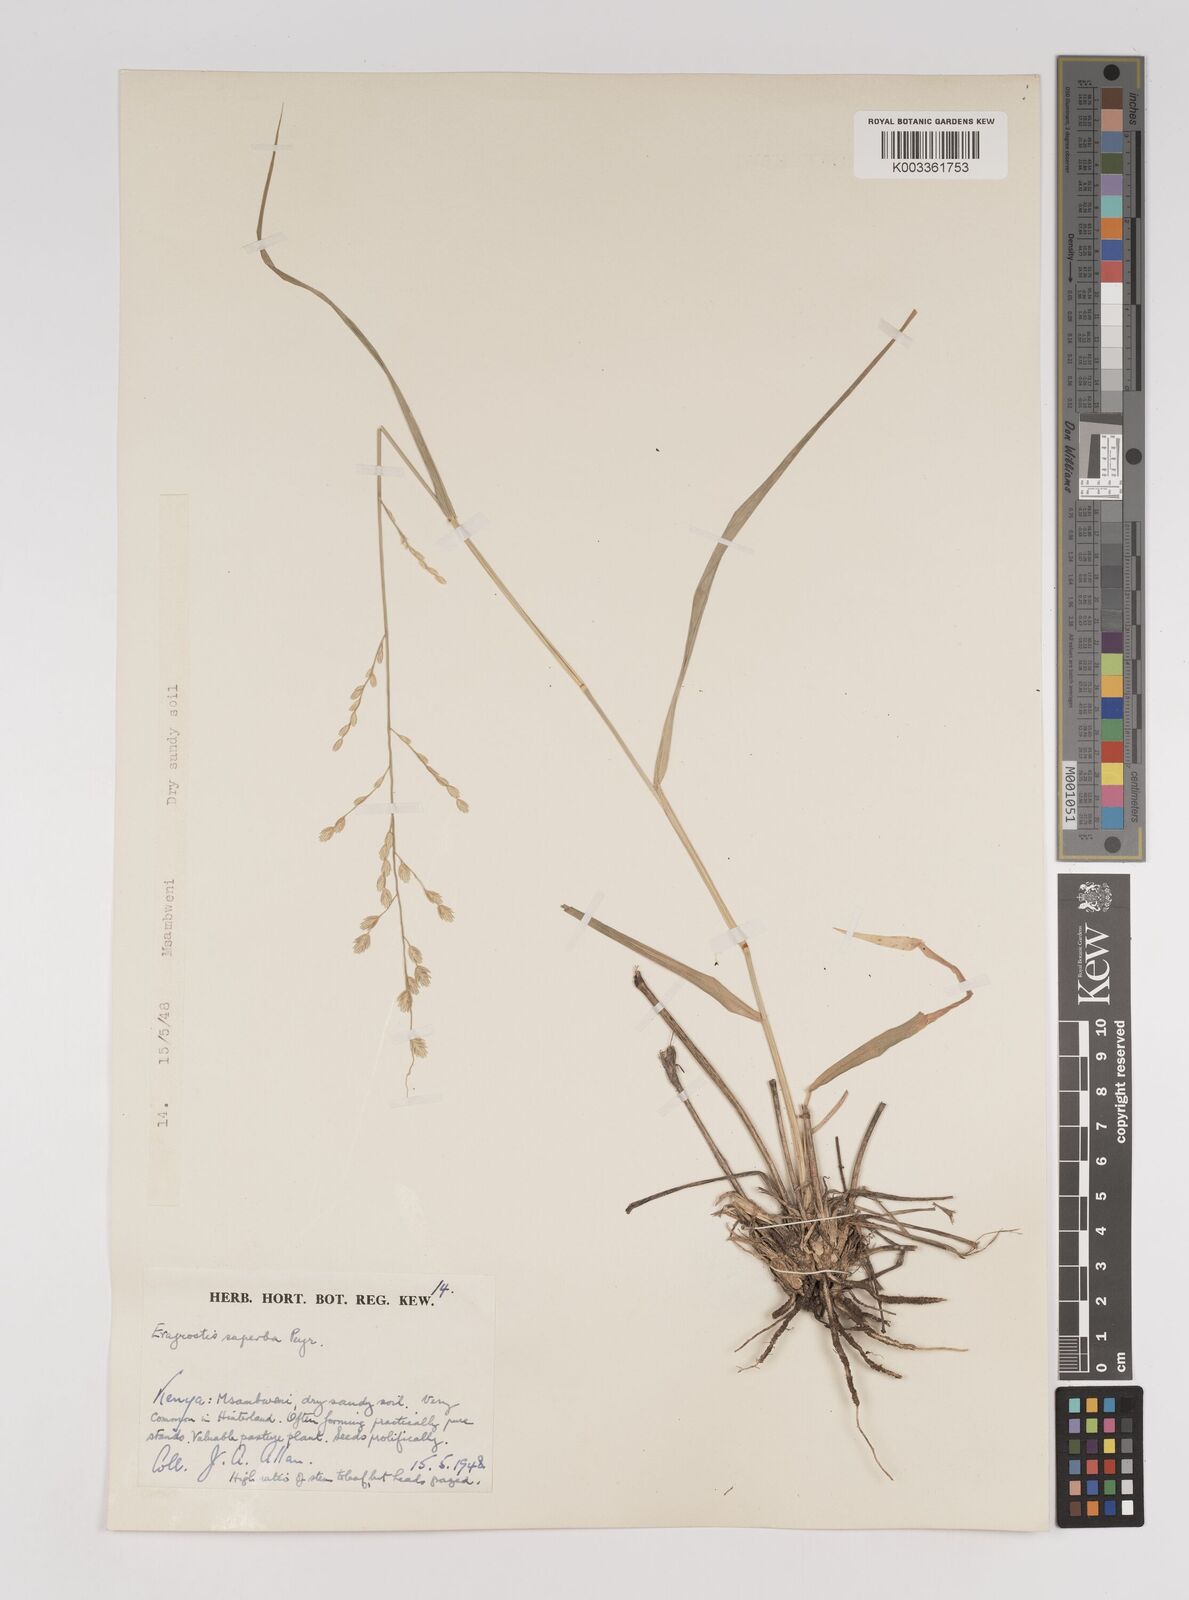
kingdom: Plantae
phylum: Tracheophyta
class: Liliopsida
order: Poales
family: Poaceae
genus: Eragrostis
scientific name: Eragrostis superba
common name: Wilman lovegrass
